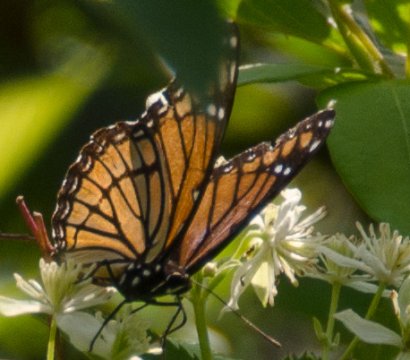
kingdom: Animalia
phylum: Arthropoda
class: Insecta
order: Lepidoptera
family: Nymphalidae
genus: Limenitis
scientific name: Limenitis archippus
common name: Viceroy
